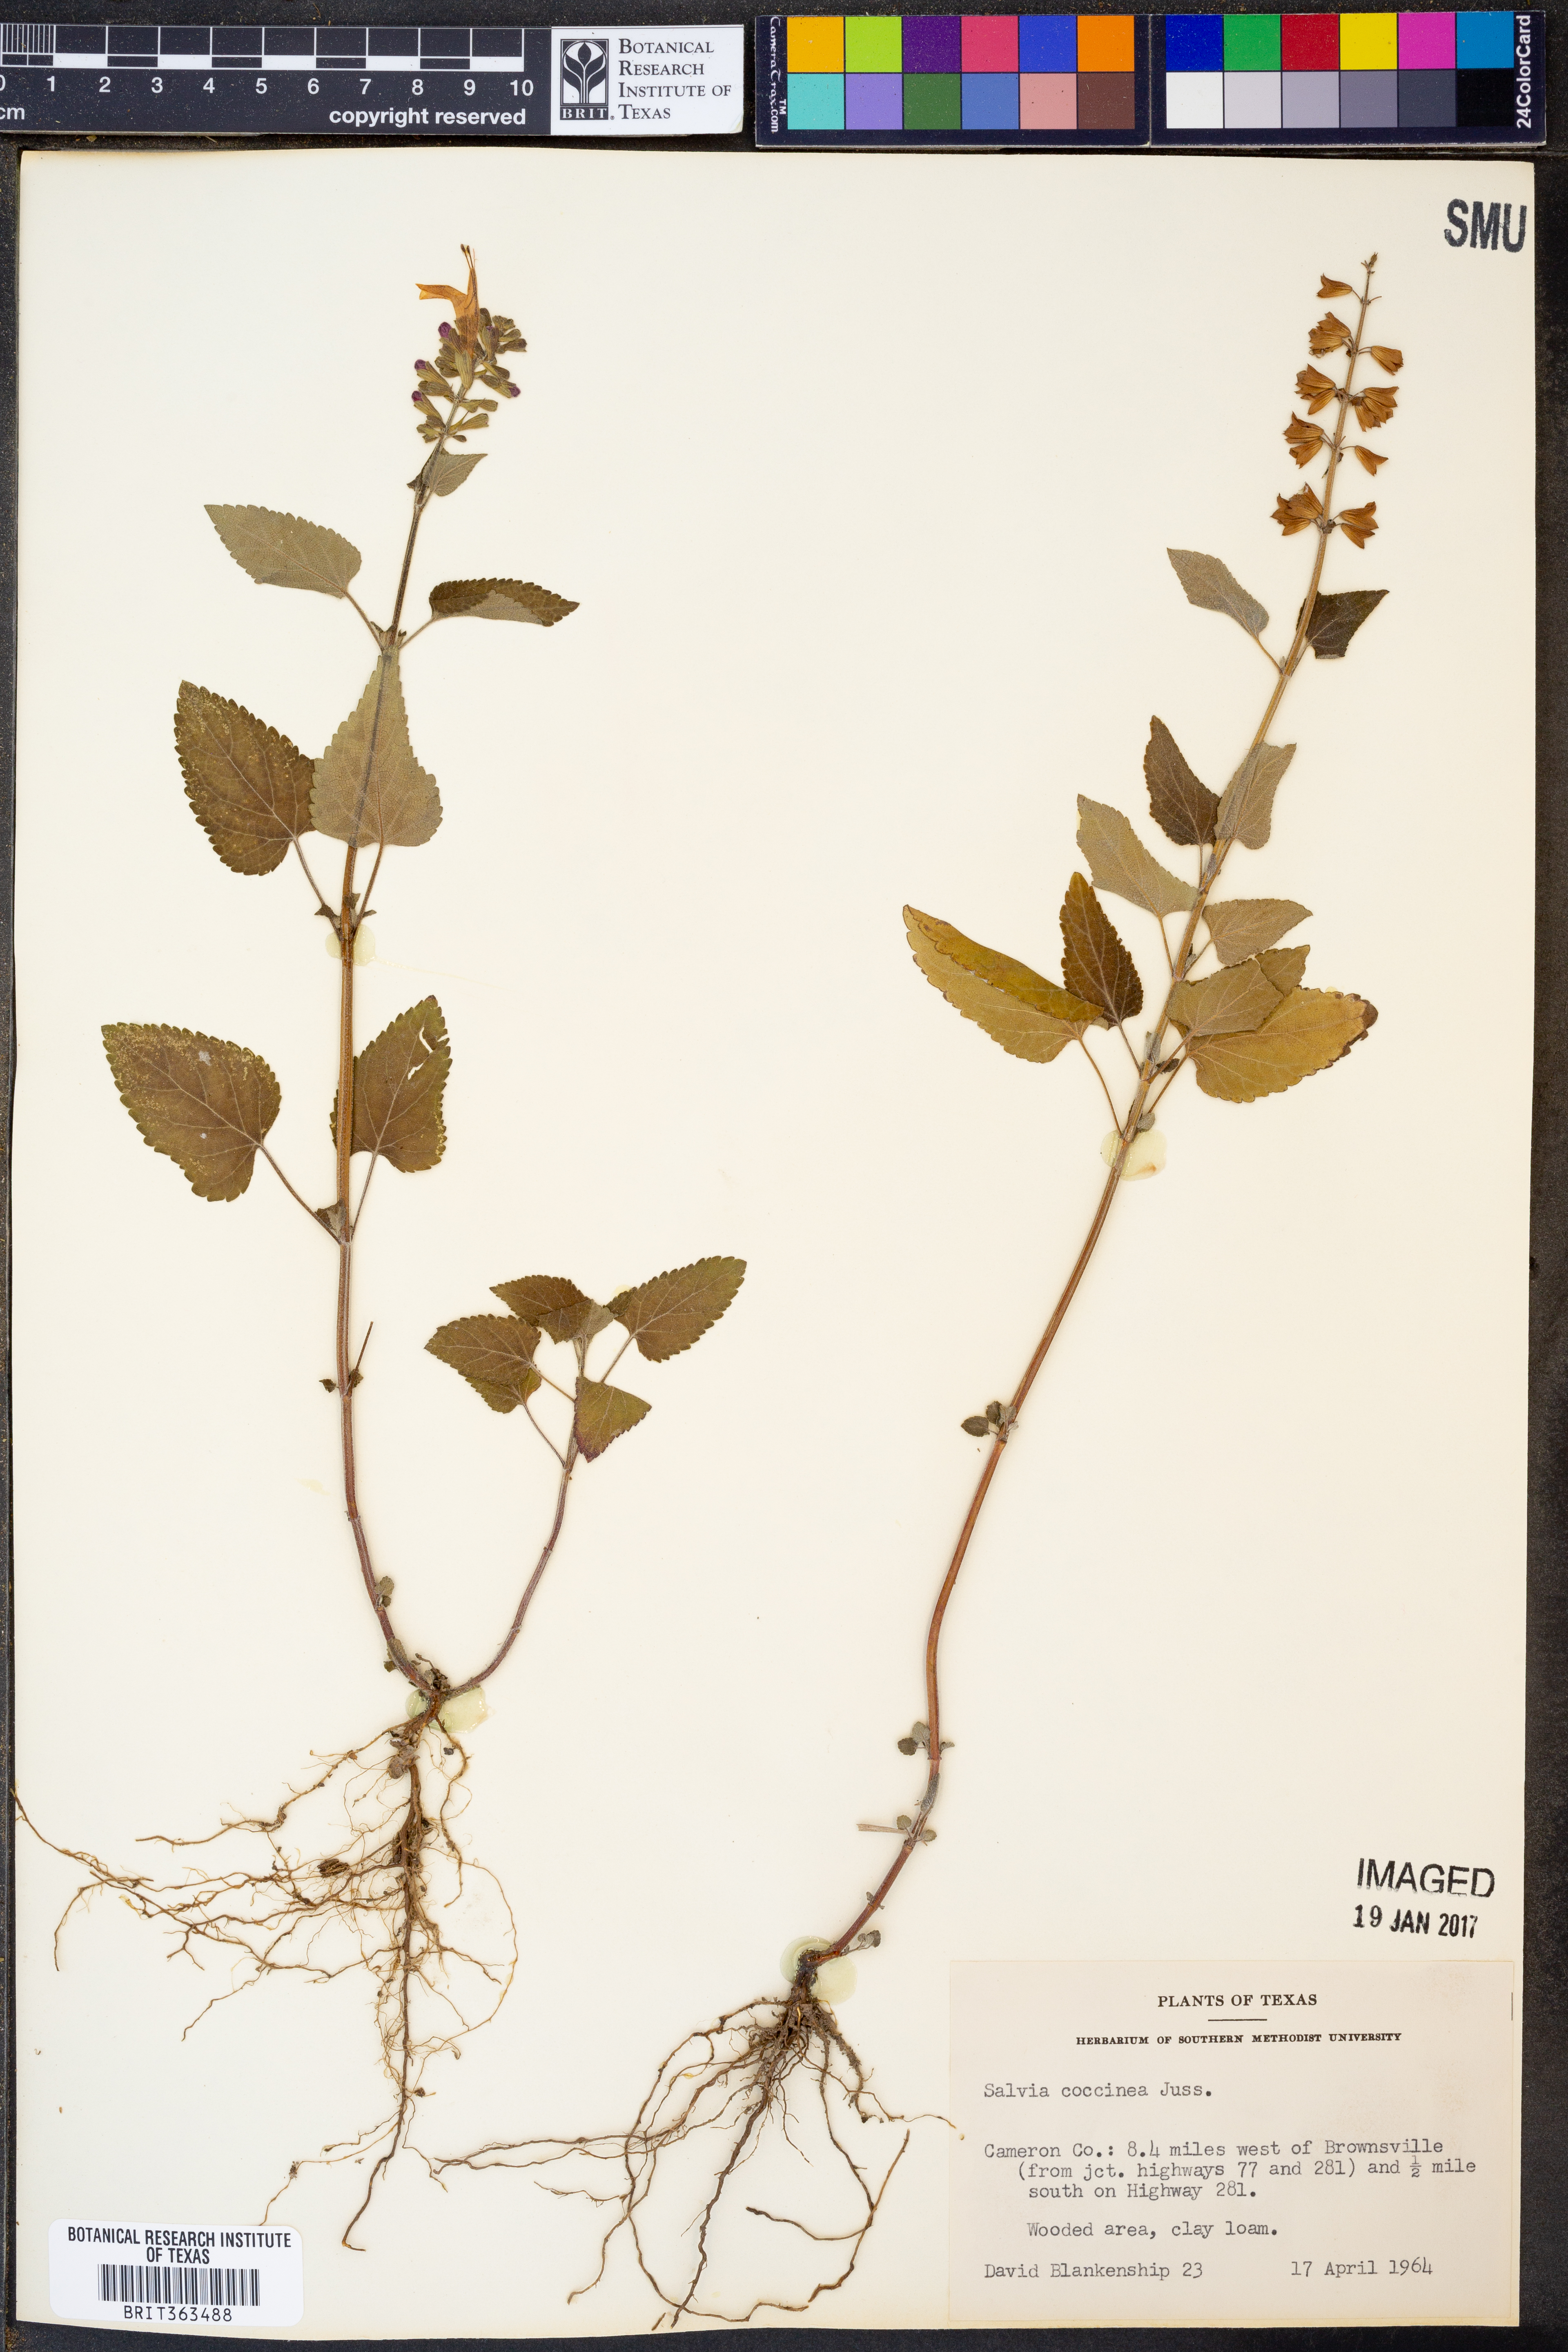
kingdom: Plantae
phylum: Tracheophyta
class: Magnoliopsida
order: Lamiales
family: Lamiaceae
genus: Salvia
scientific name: Salvia coccinea
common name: Blood sage
